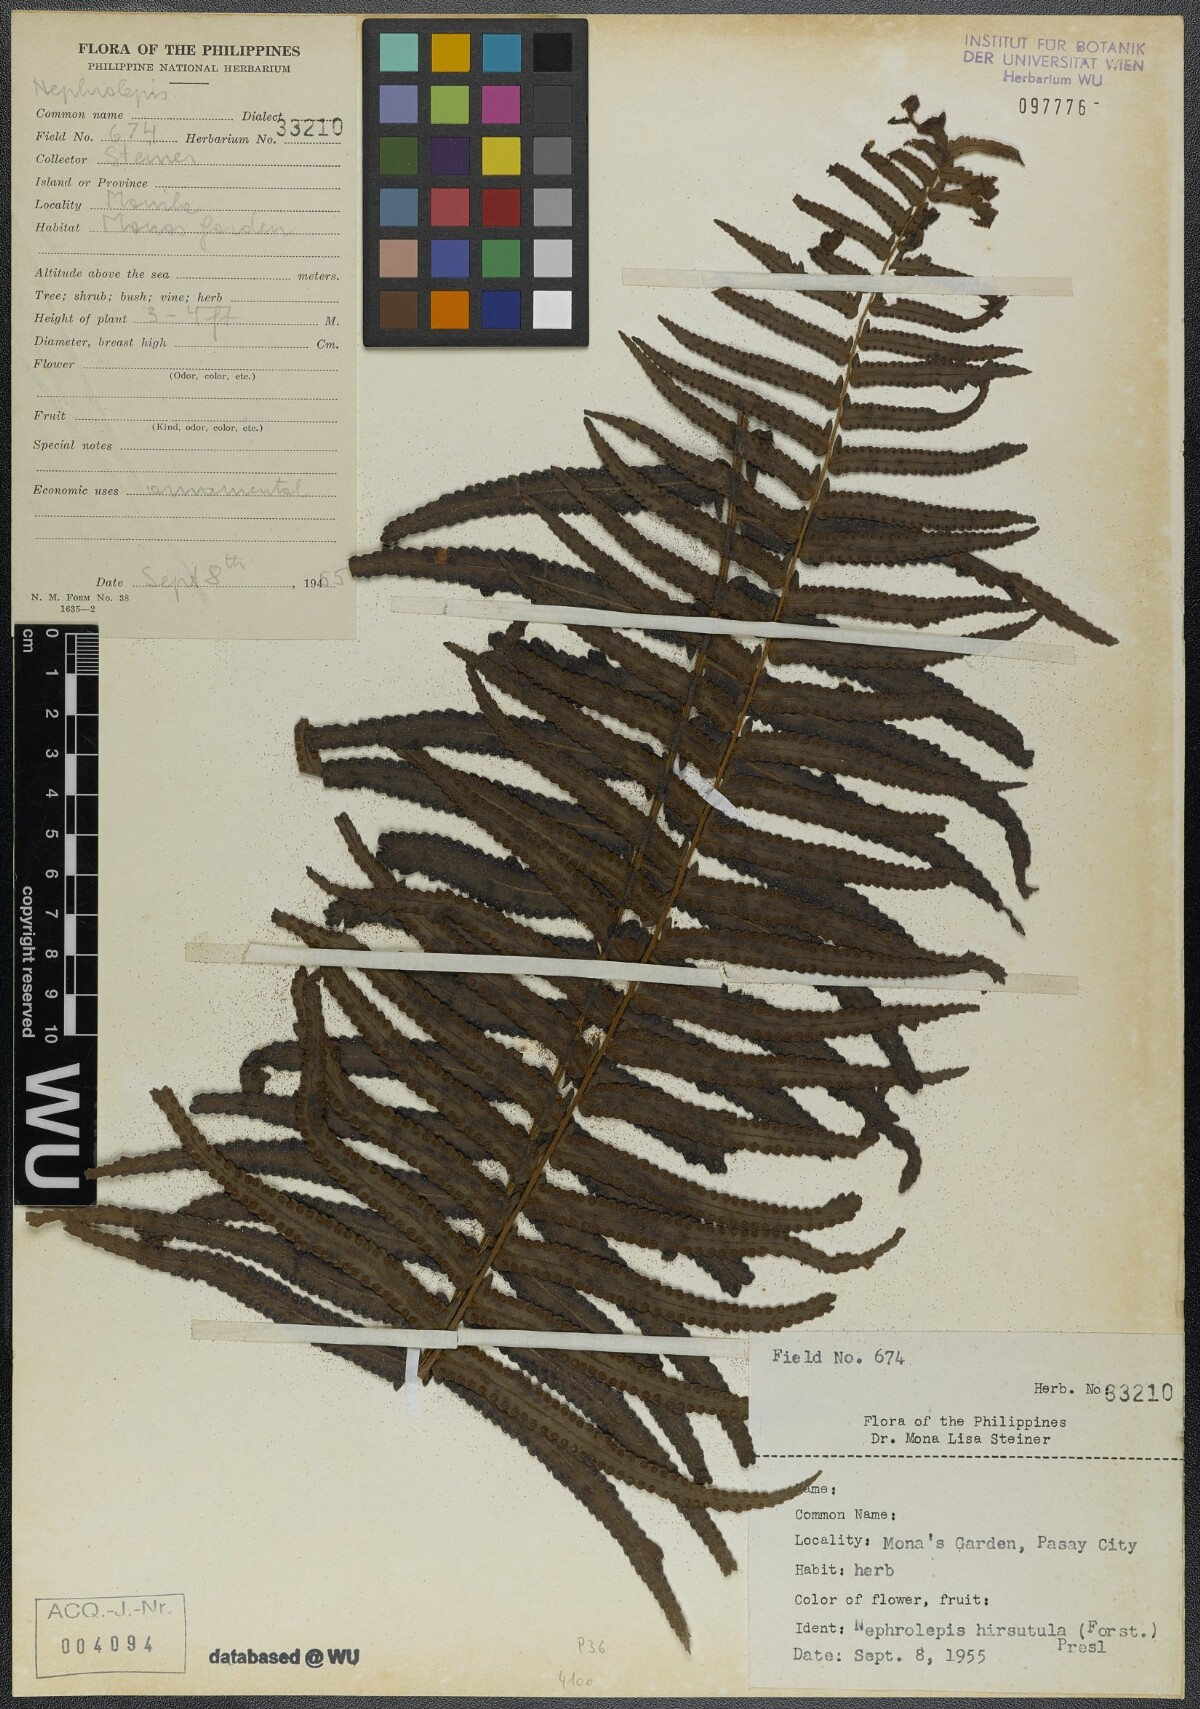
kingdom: Plantae
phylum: Tracheophyta
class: Polypodiopsida
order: Polypodiales
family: Nephrolepidaceae
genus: Nephrolepis
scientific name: Nephrolepis hirsutula
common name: Asian sword fern
